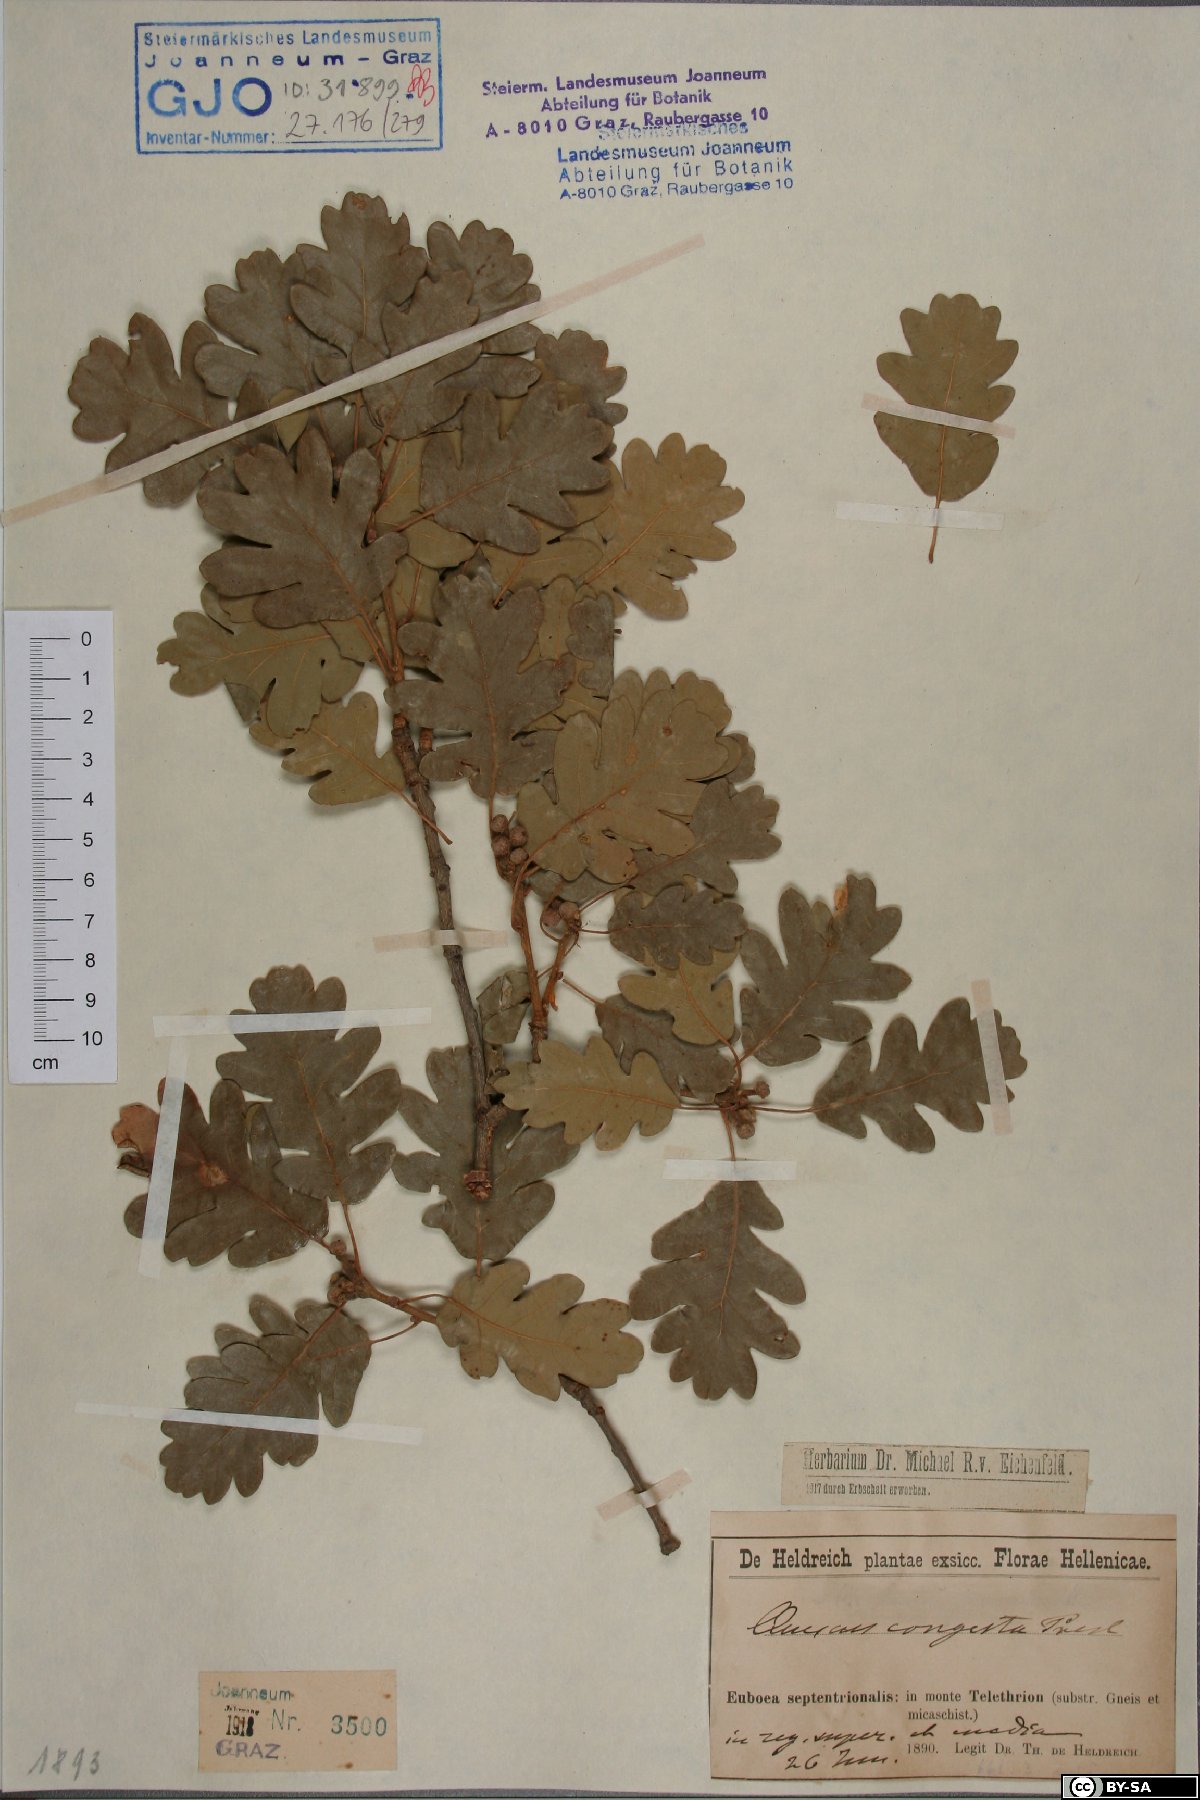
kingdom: Plantae
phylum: Tracheophyta
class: Magnoliopsida
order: Fagales
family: Fagaceae
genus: Quercus
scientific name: Quercus congesta
